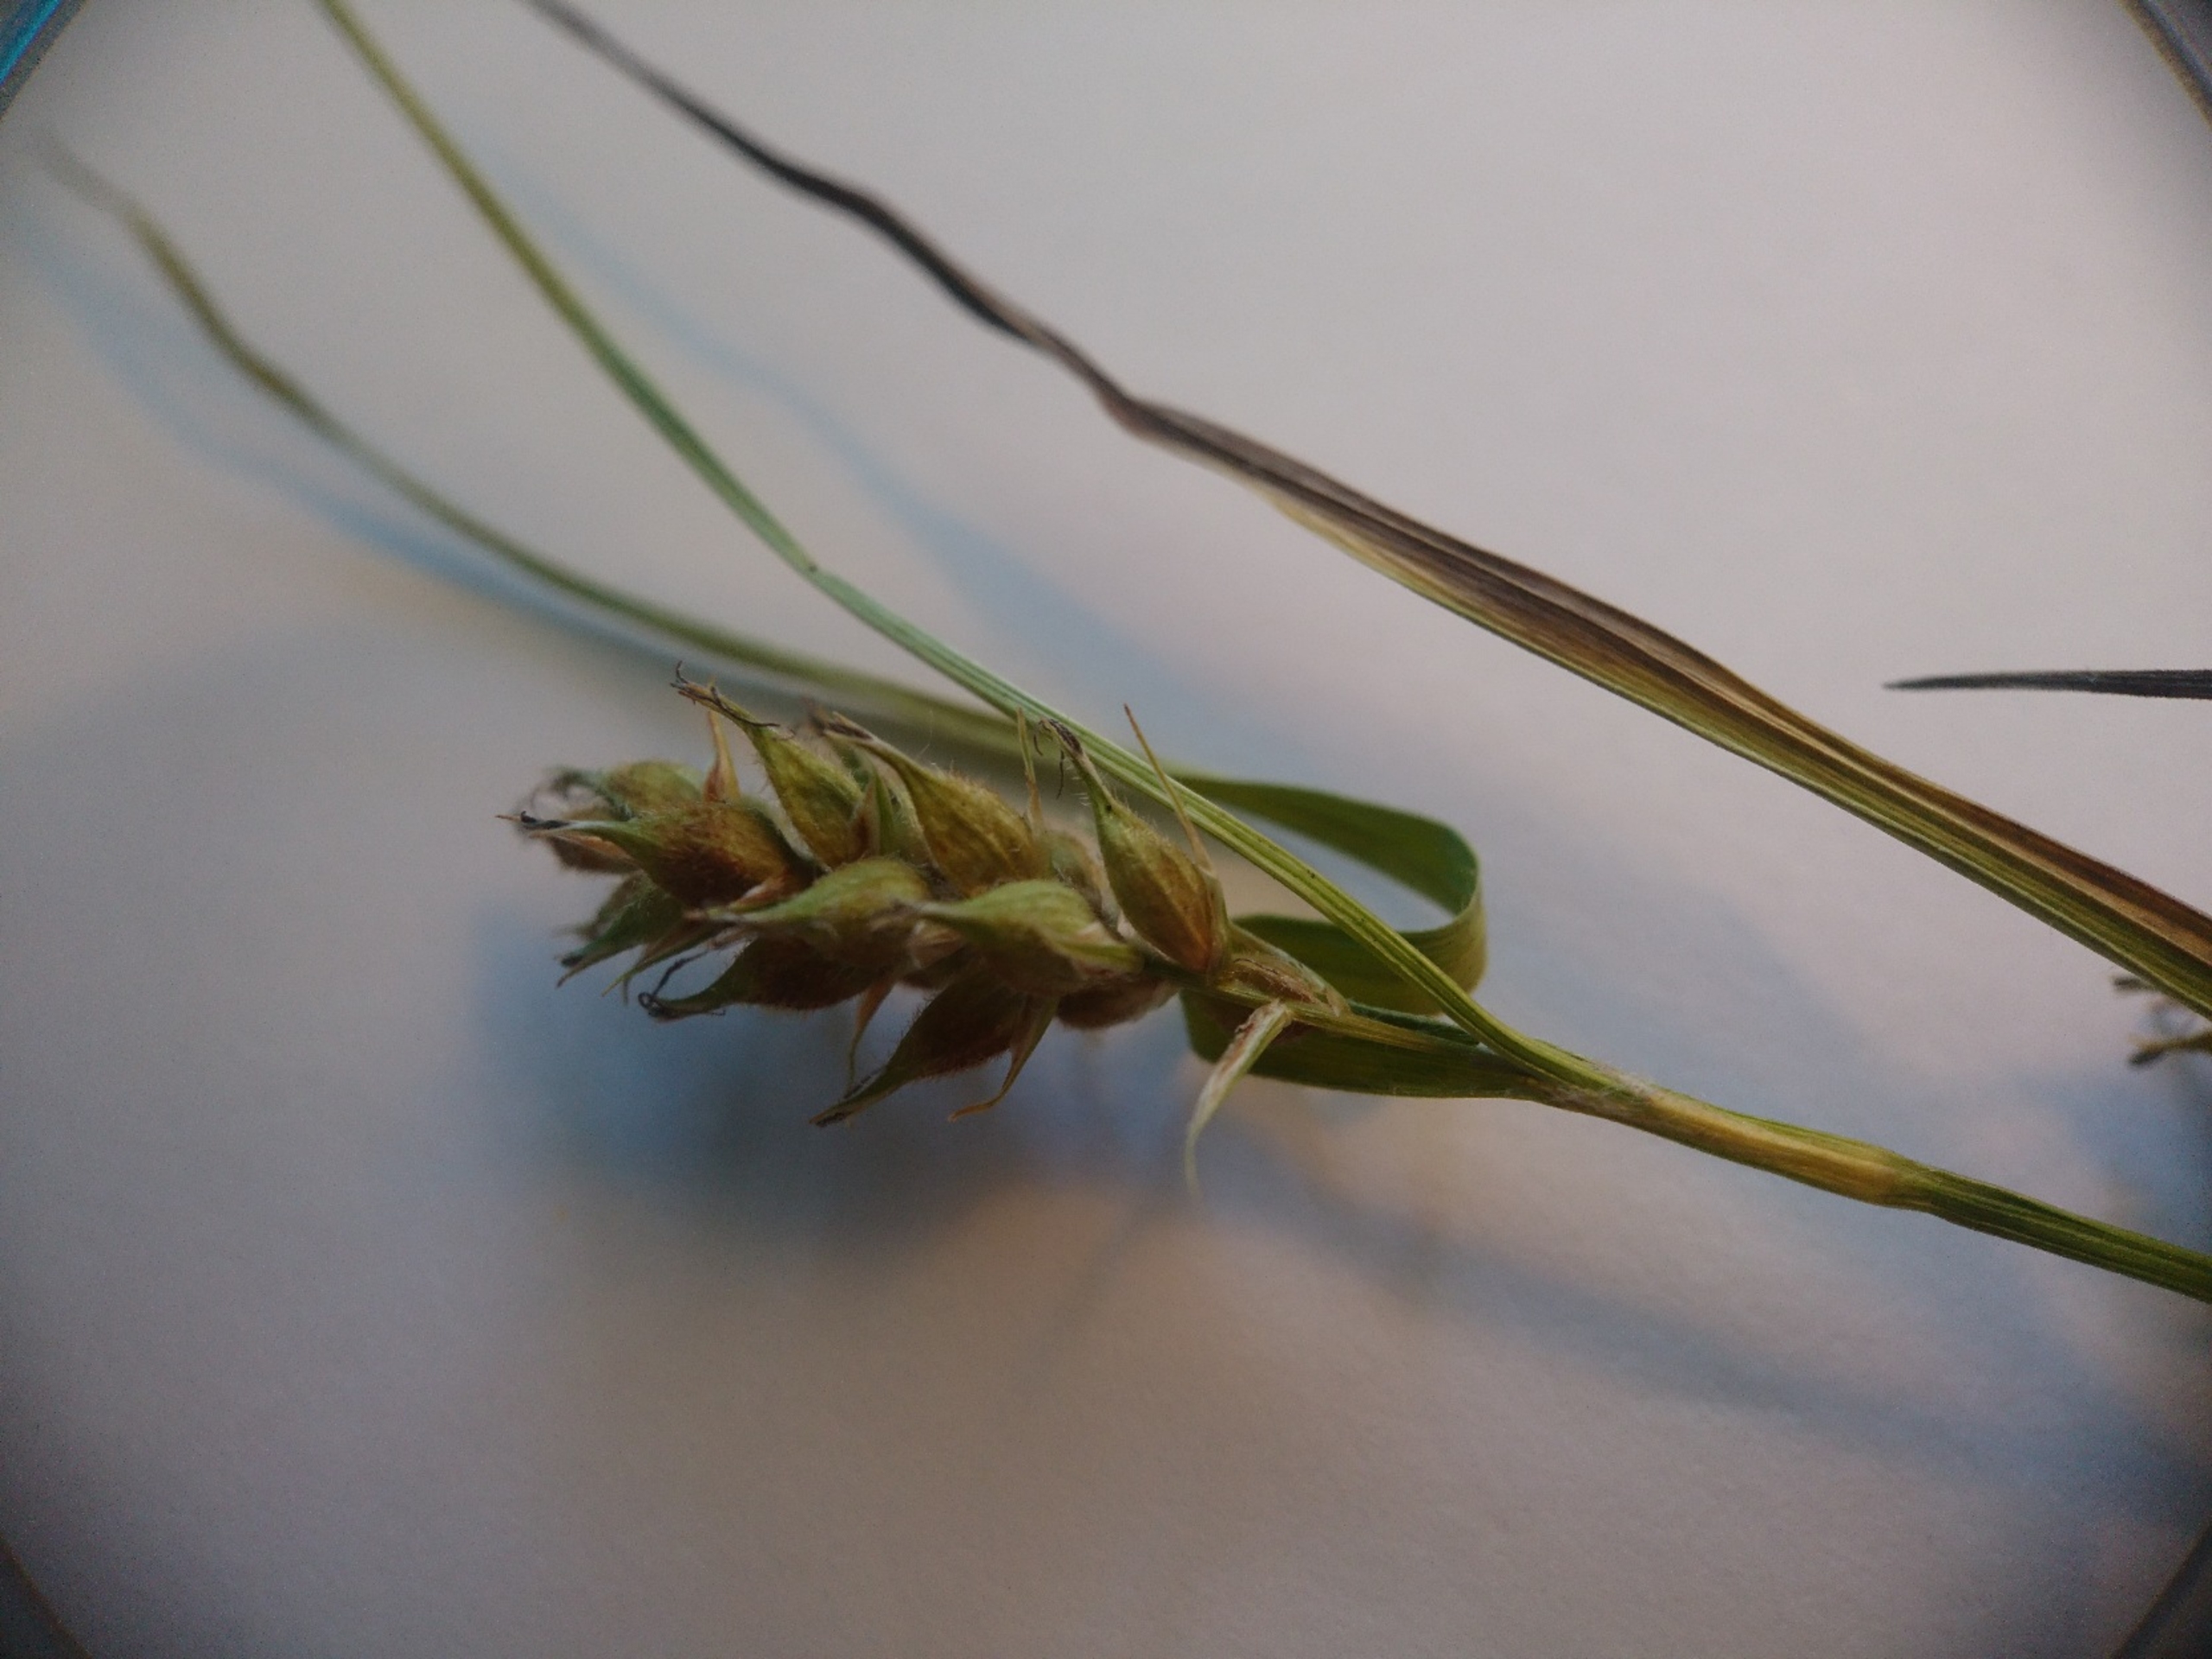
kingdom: Plantae
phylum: Tracheophyta
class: Liliopsida
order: Poales
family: Cyperaceae
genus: Carex
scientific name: Carex hirta
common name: Håret star
